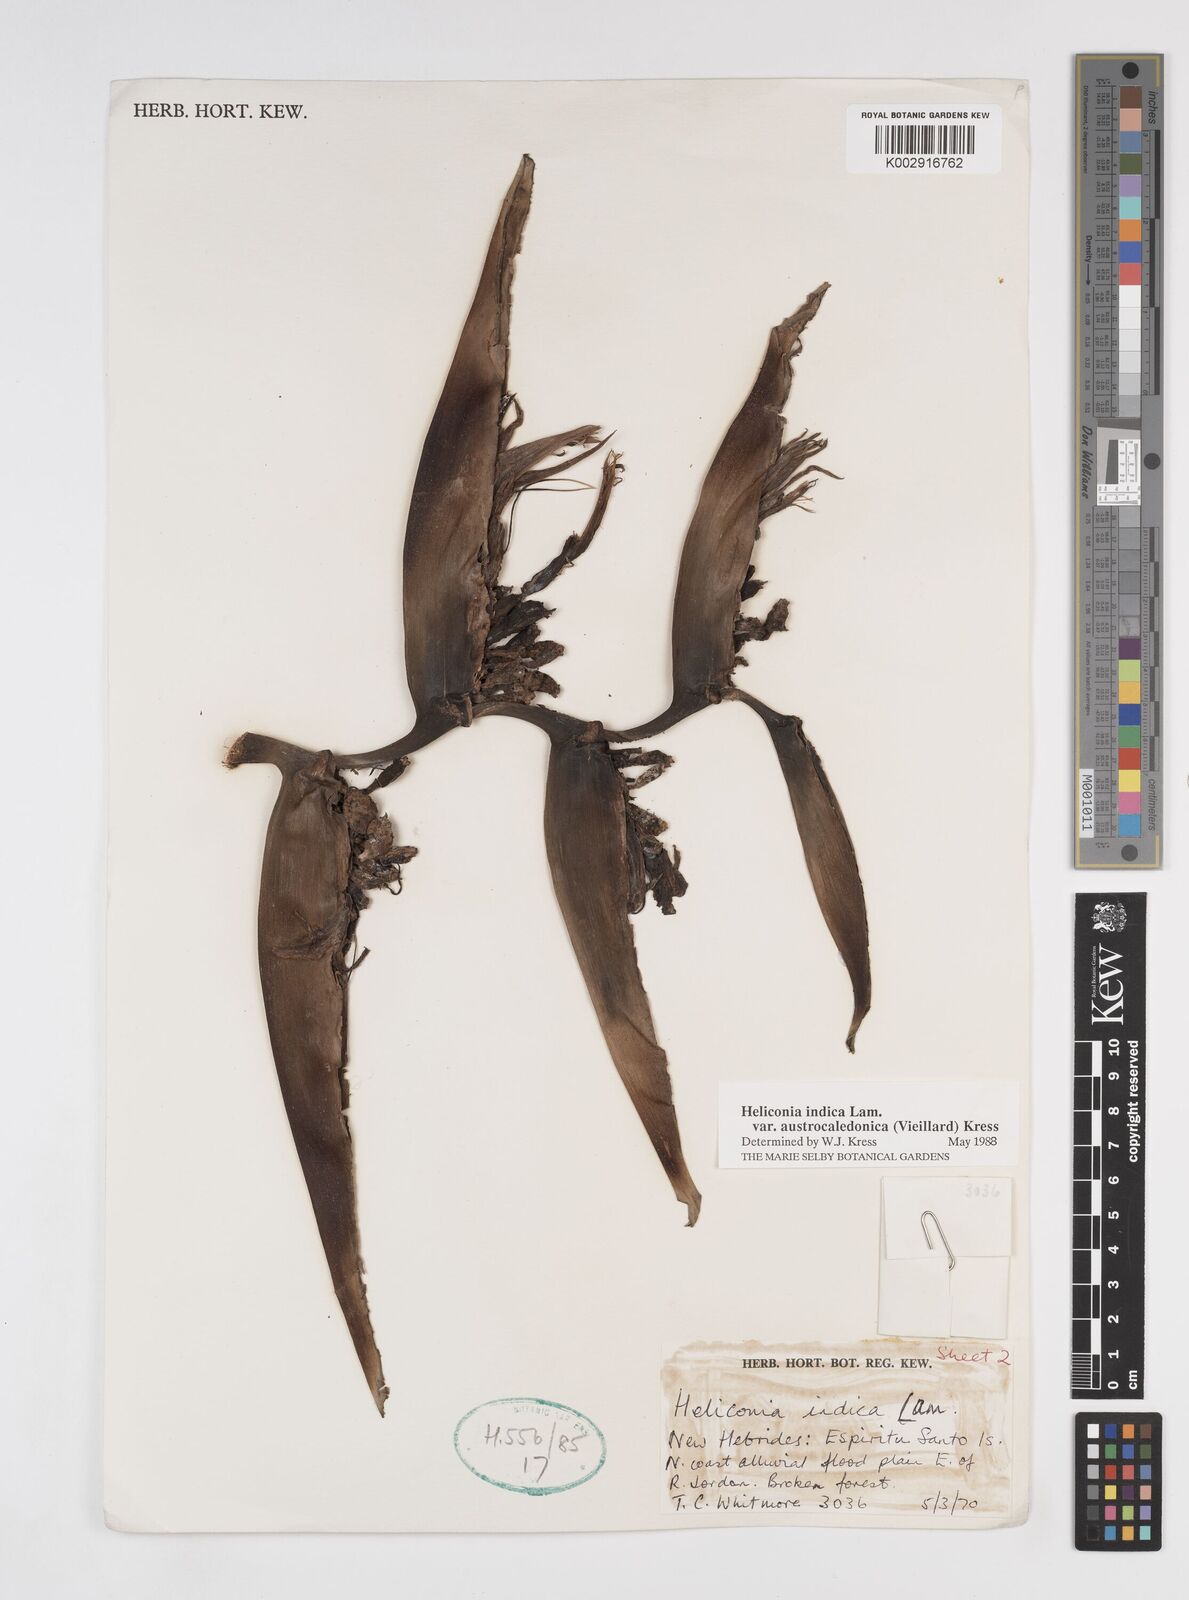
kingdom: Plantae
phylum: Tracheophyta
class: Liliopsida
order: Zingiberales
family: Heliconiaceae
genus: Heliconia
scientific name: Heliconia indica
